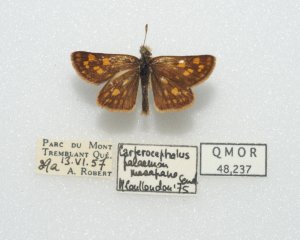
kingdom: Animalia
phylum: Arthropoda
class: Insecta
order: Lepidoptera
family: Hesperiidae
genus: Carterocephalus
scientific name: Carterocephalus palaemon
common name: Chequered Skipper
